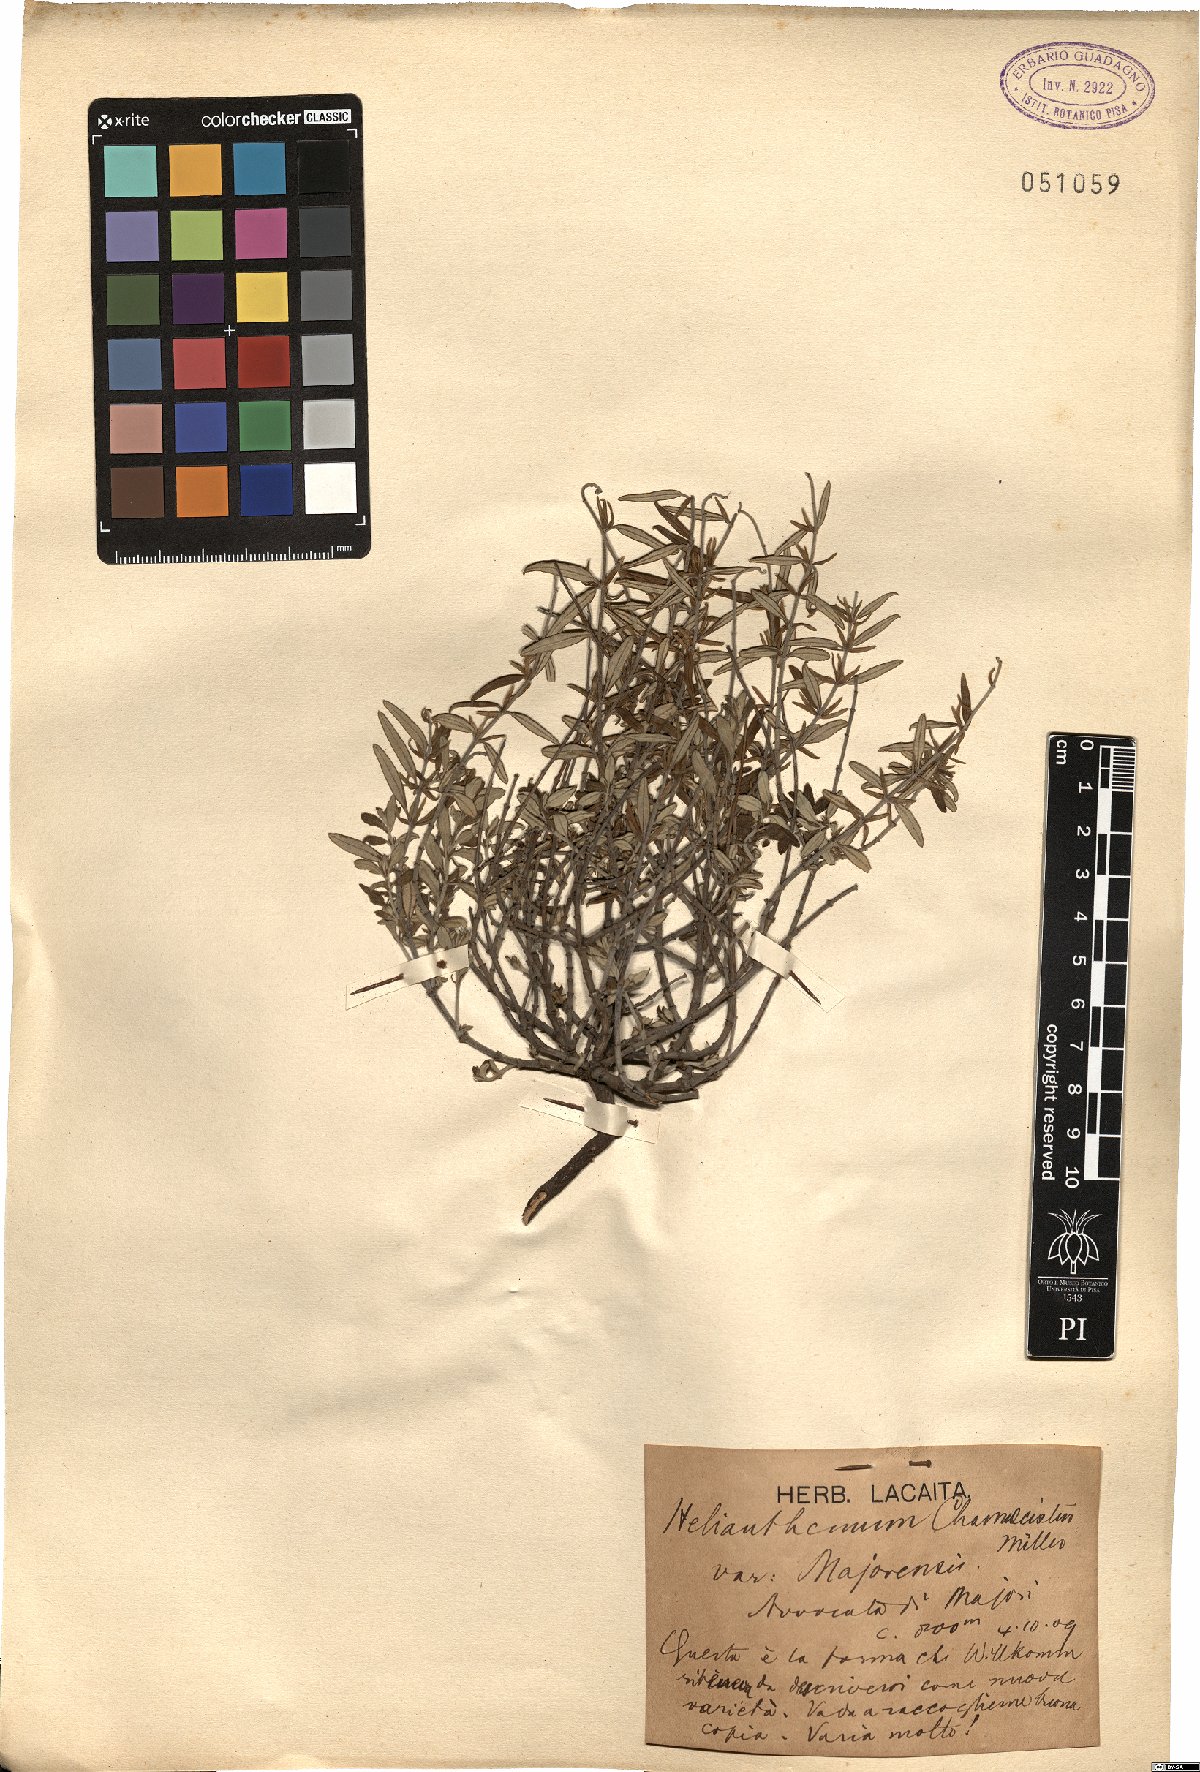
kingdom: Plantae
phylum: Tracheophyta
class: Magnoliopsida
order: Malvales
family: Cistaceae
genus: Helianthemum
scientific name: Helianthemum nummularium
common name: Common rock-rose
